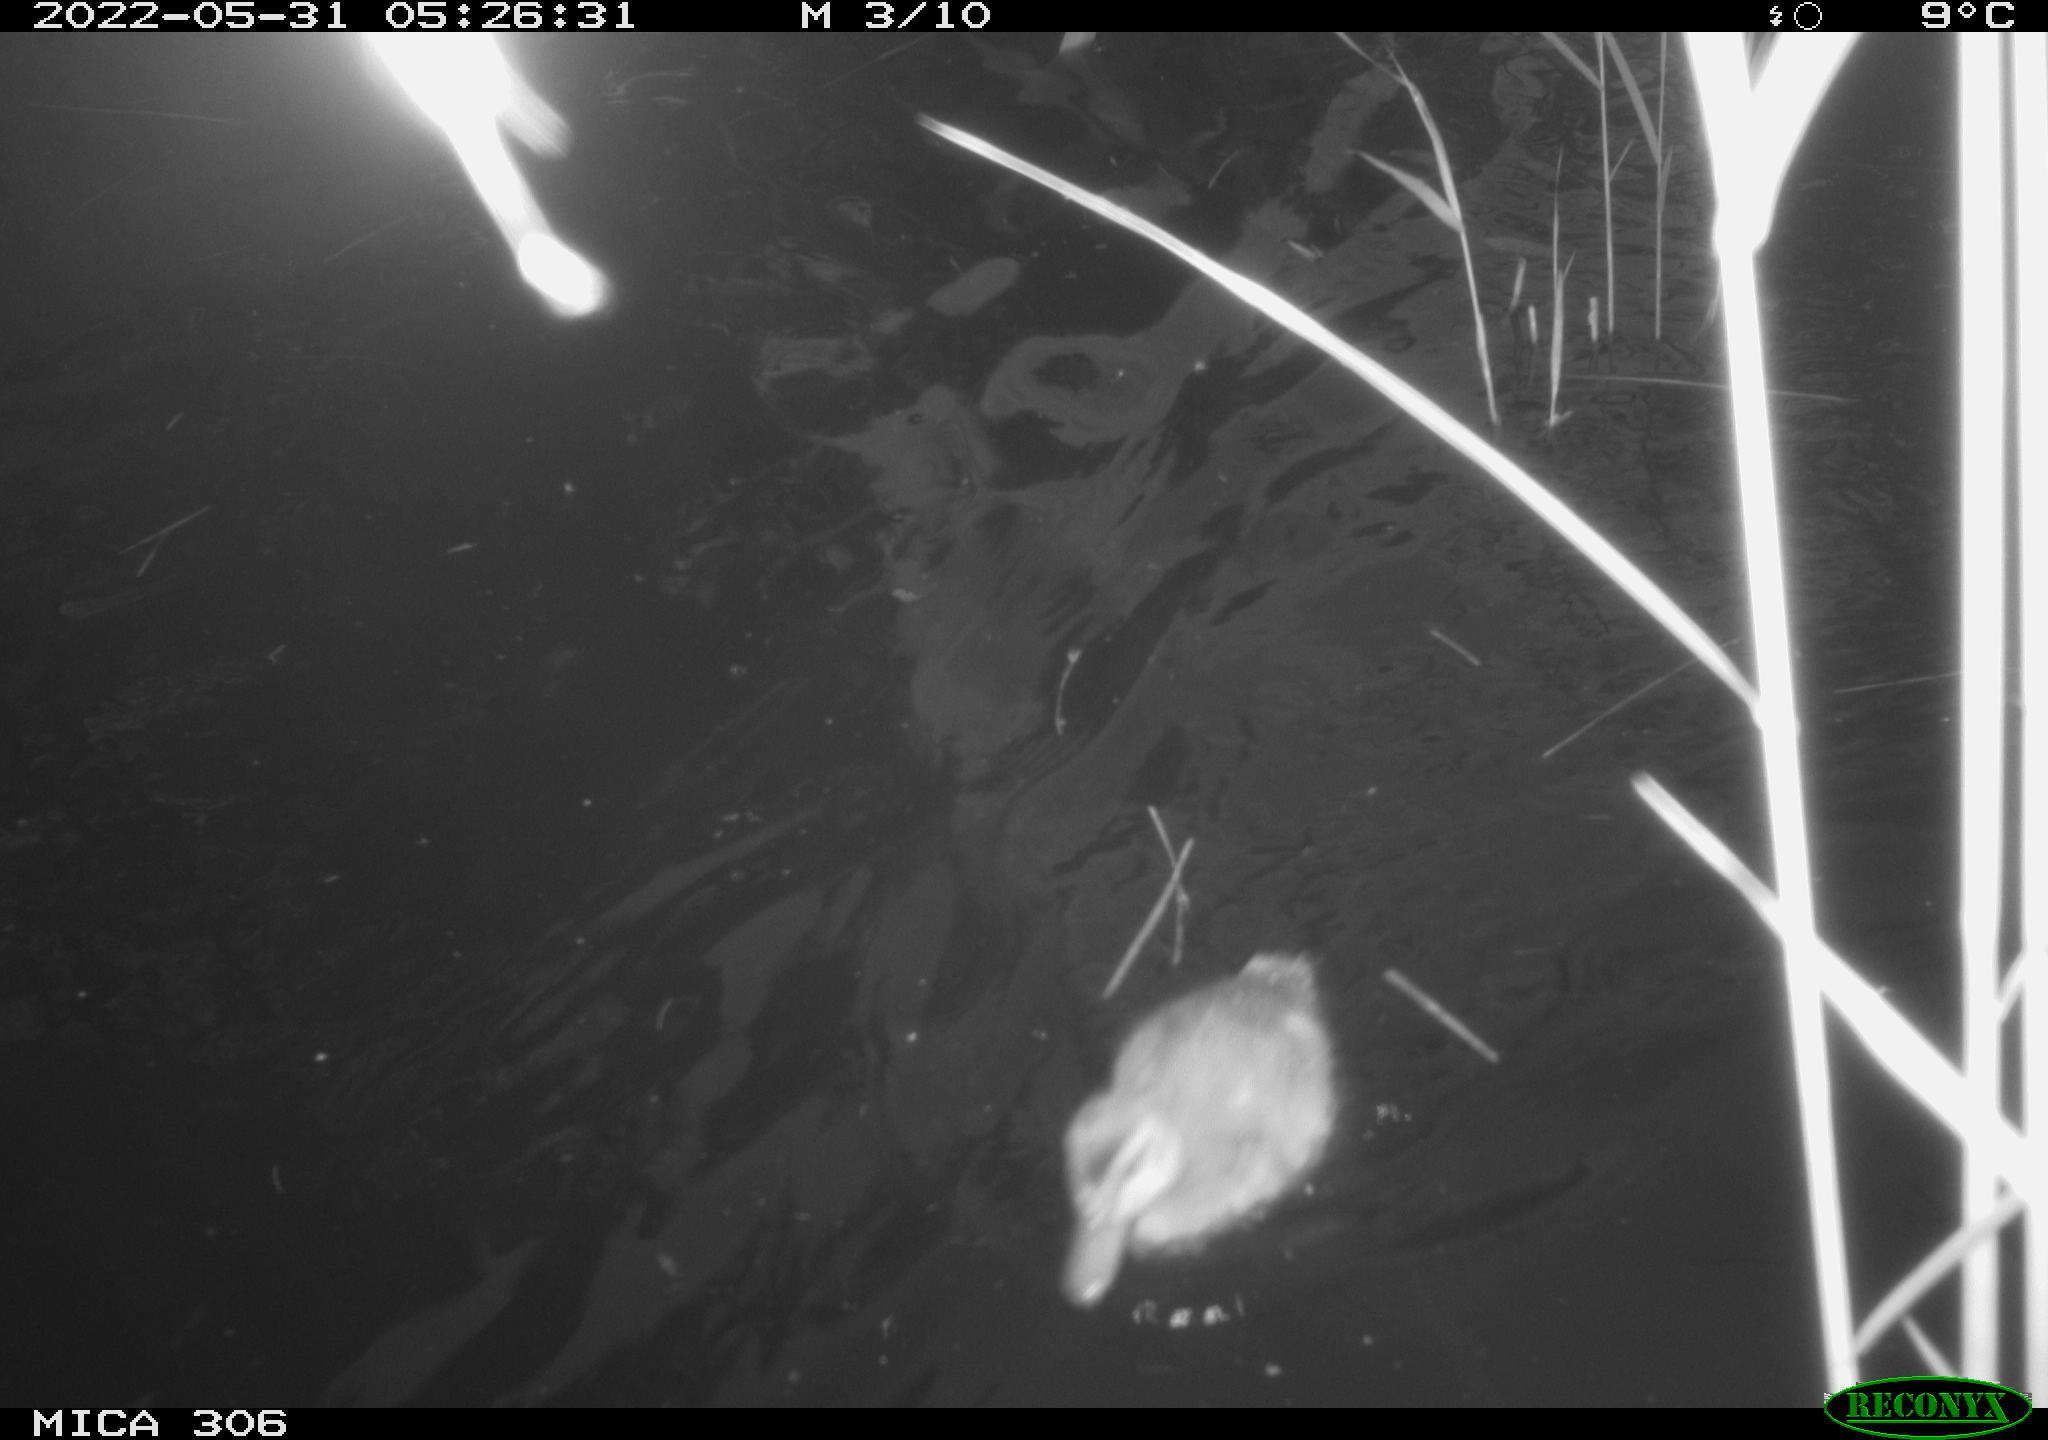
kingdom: Animalia
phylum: Chordata
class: Aves
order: Anseriformes
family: Anatidae
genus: Anas
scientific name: Anas platyrhynchos
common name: Mallard
